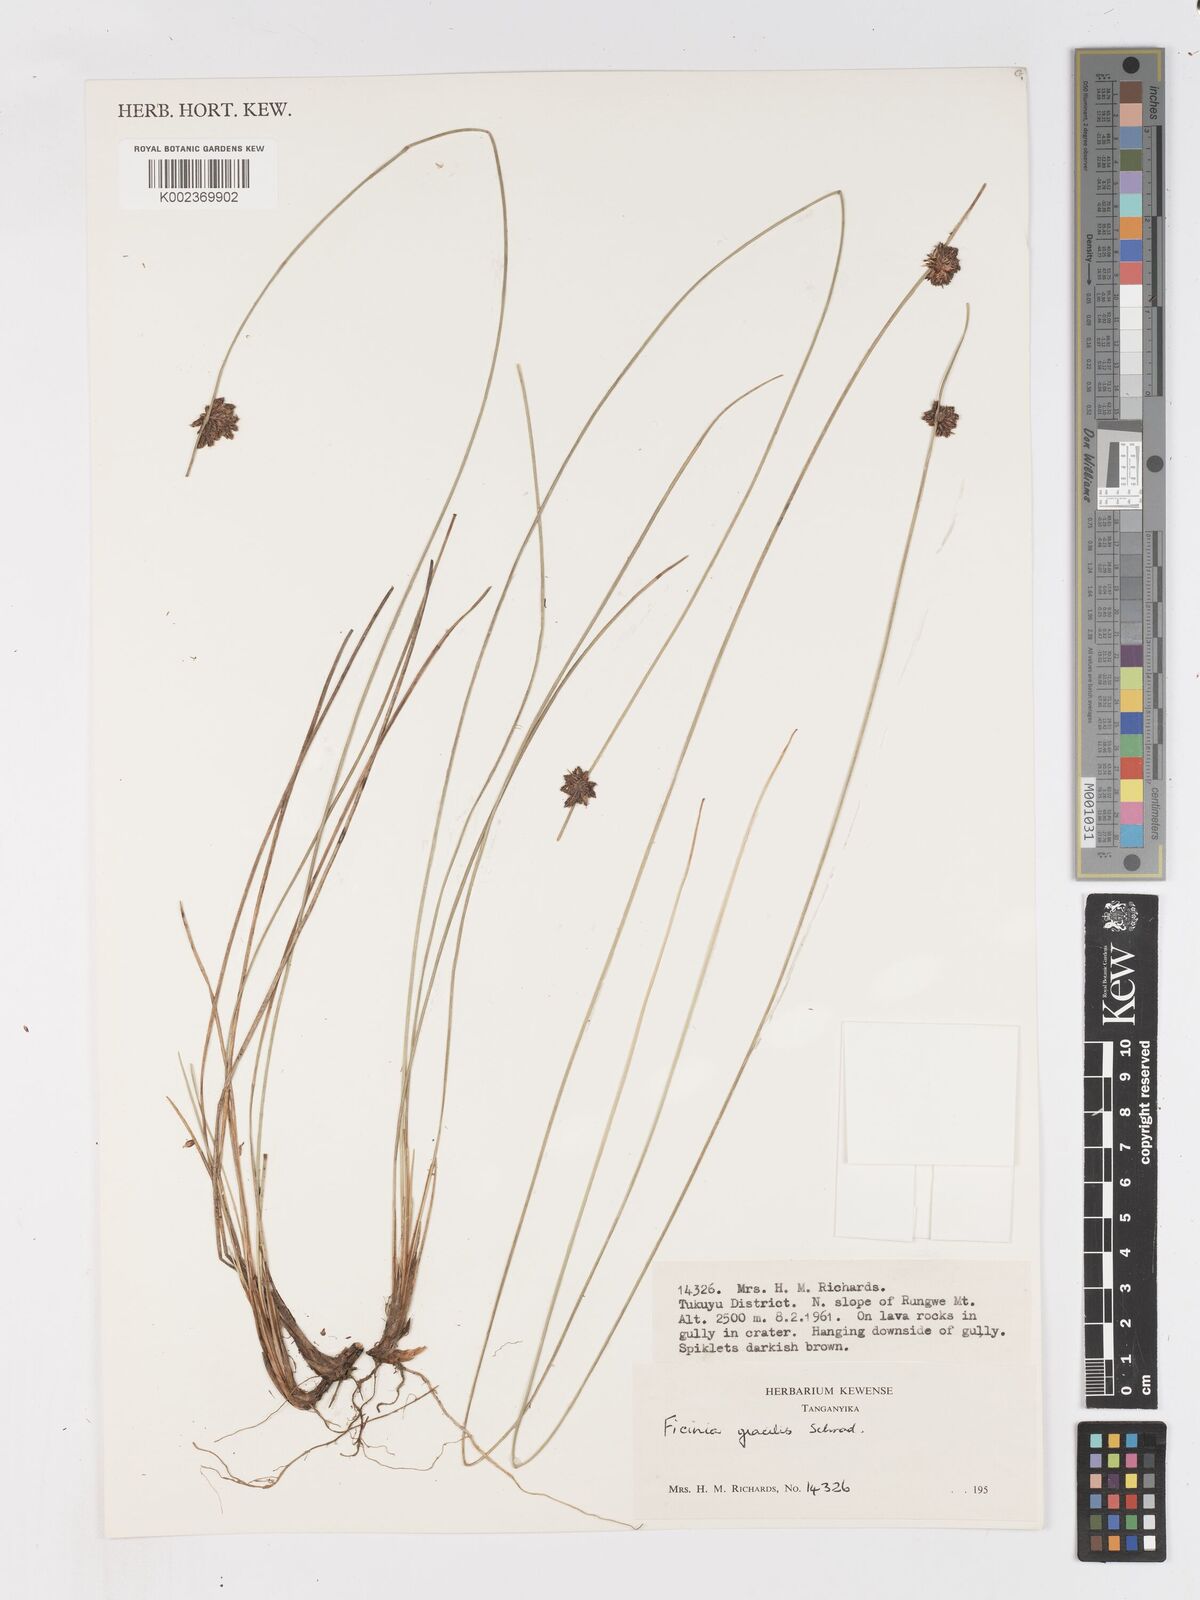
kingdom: Plantae
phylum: Tracheophyta
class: Liliopsida
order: Poales
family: Cyperaceae
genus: Ficinia
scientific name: Ficinia gracilis
